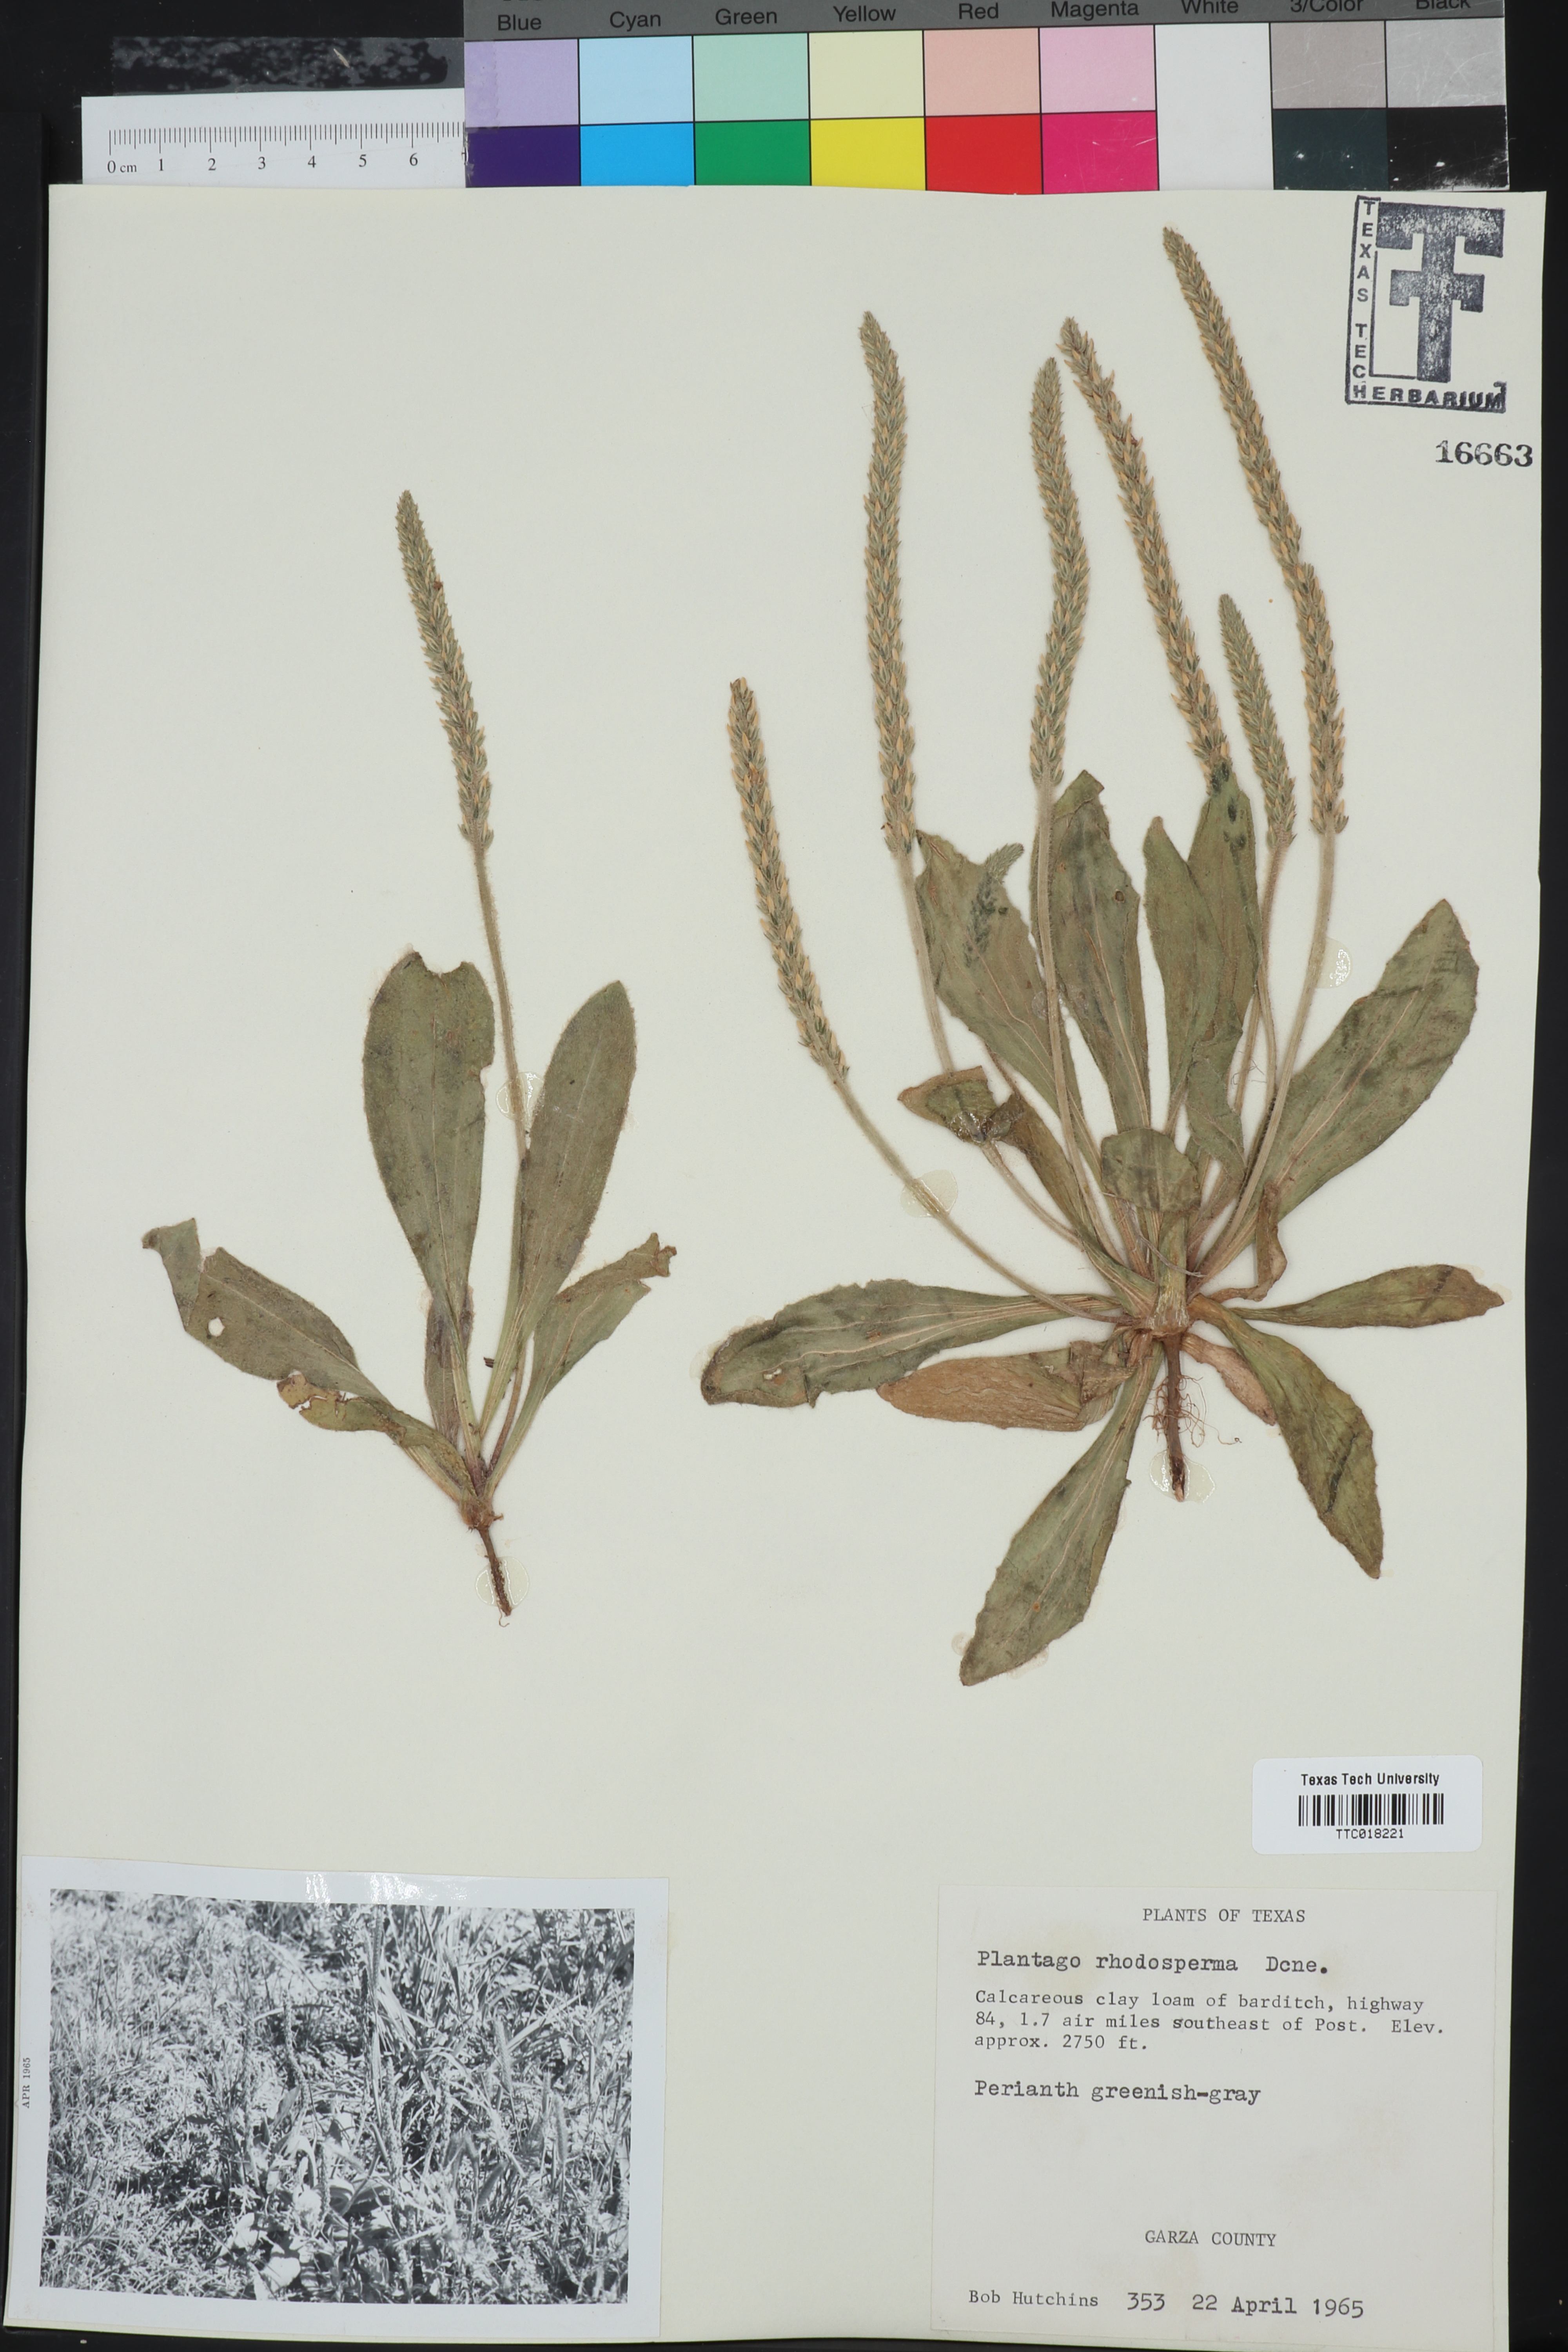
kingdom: Plantae
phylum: Tracheophyta
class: Magnoliopsida
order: Lamiales
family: Plantaginaceae
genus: Plantago
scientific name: Plantago rhodosperma
